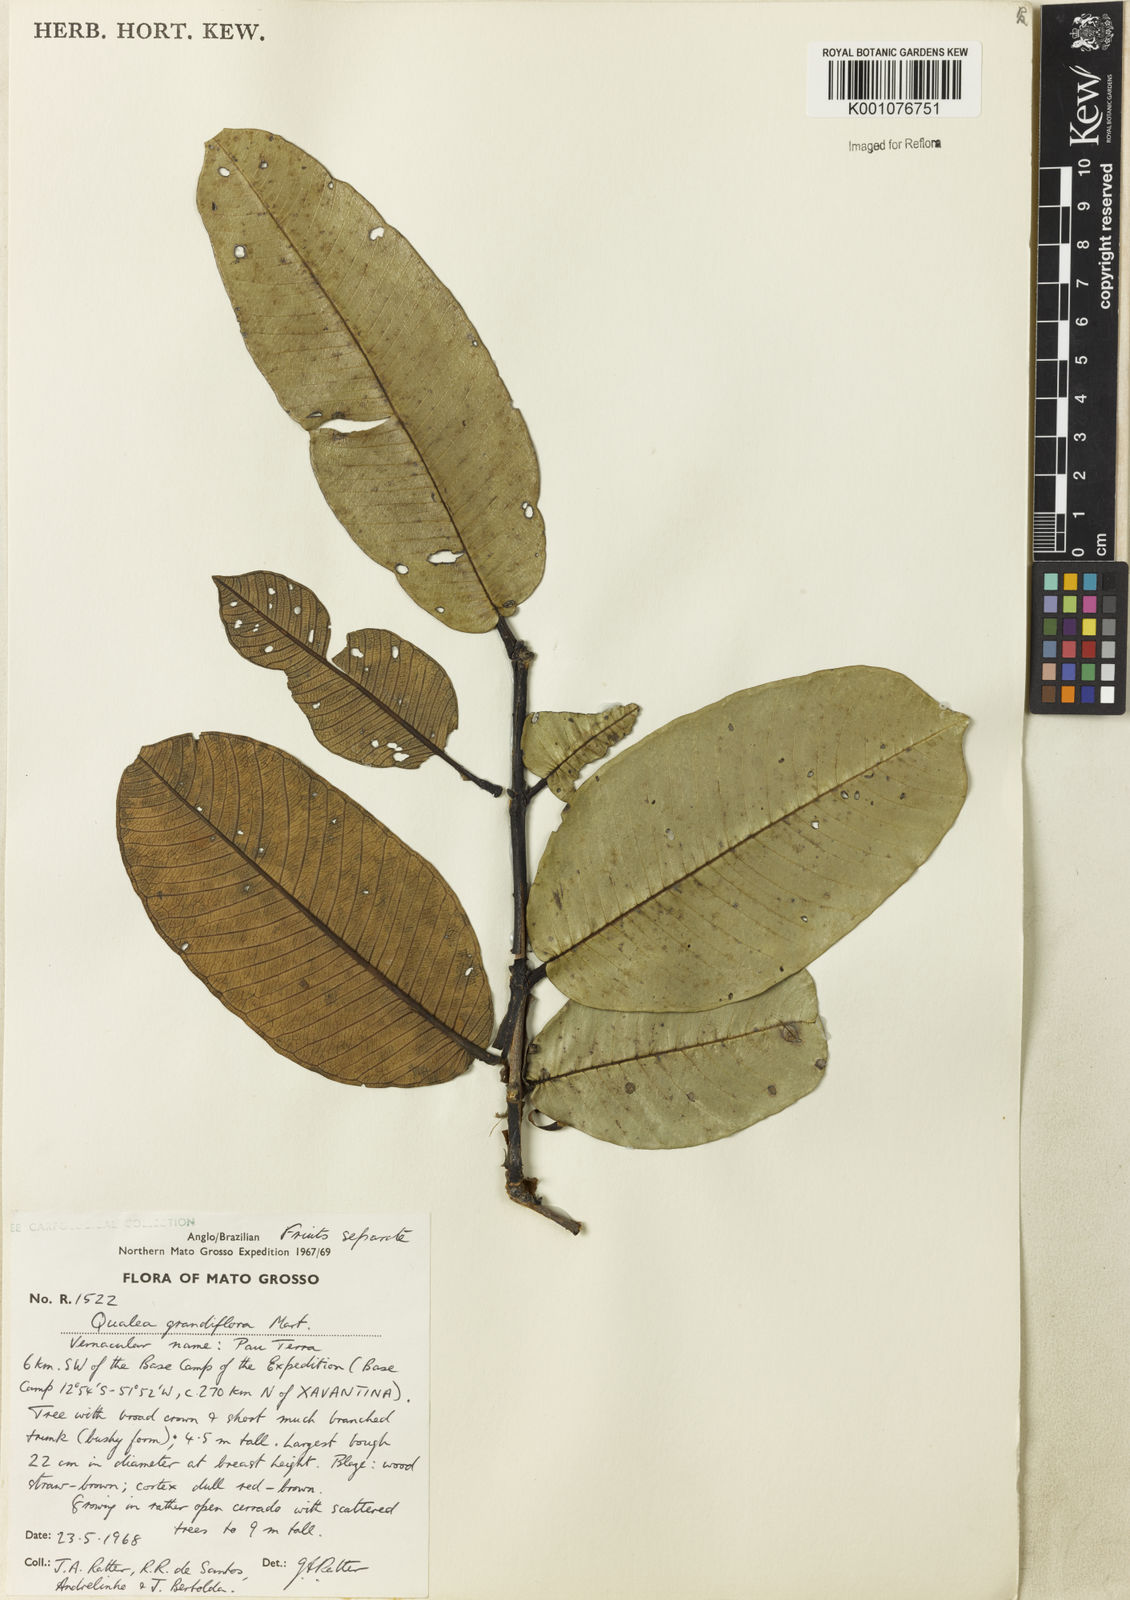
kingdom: Plantae
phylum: Tracheophyta
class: Magnoliopsida
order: Myrtales
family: Vochysiaceae
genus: Qualea
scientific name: Qualea grandiflora
